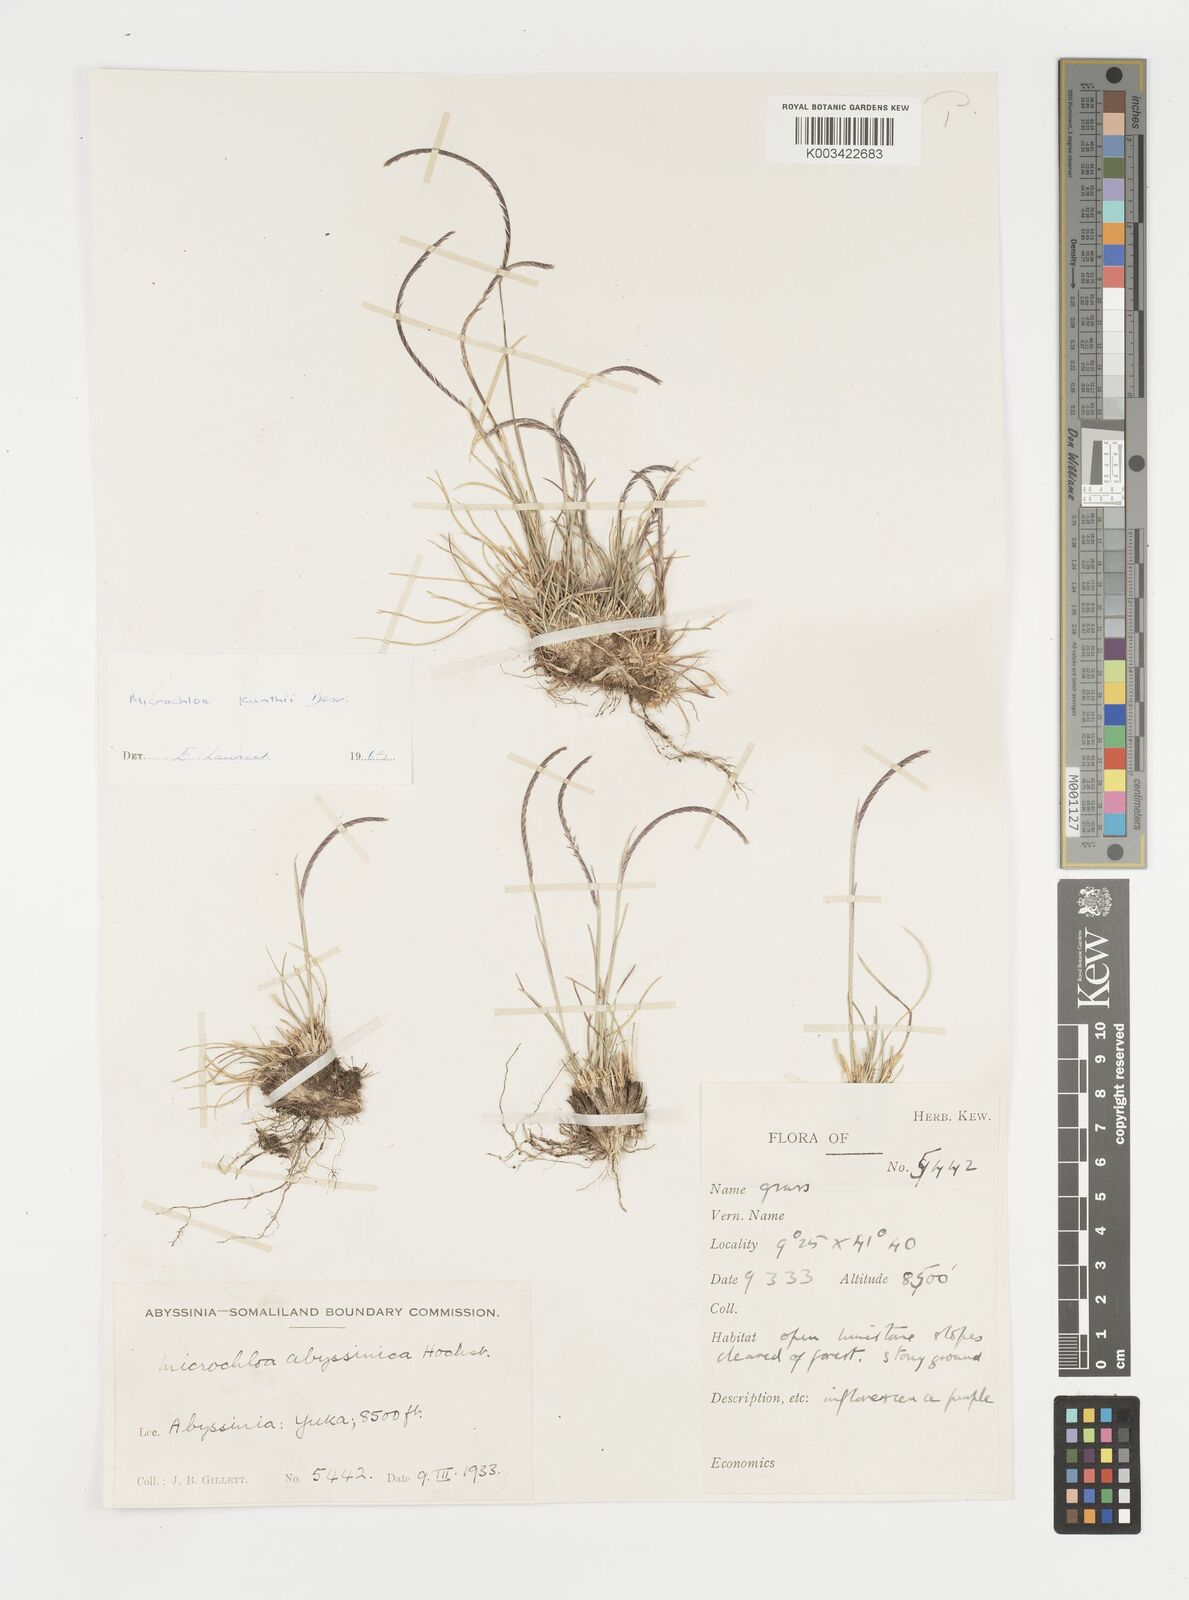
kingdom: Plantae
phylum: Tracheophyta
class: Liliopsida
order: Poales
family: Poaceae
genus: Microchloa
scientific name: Microchloa kunthii
